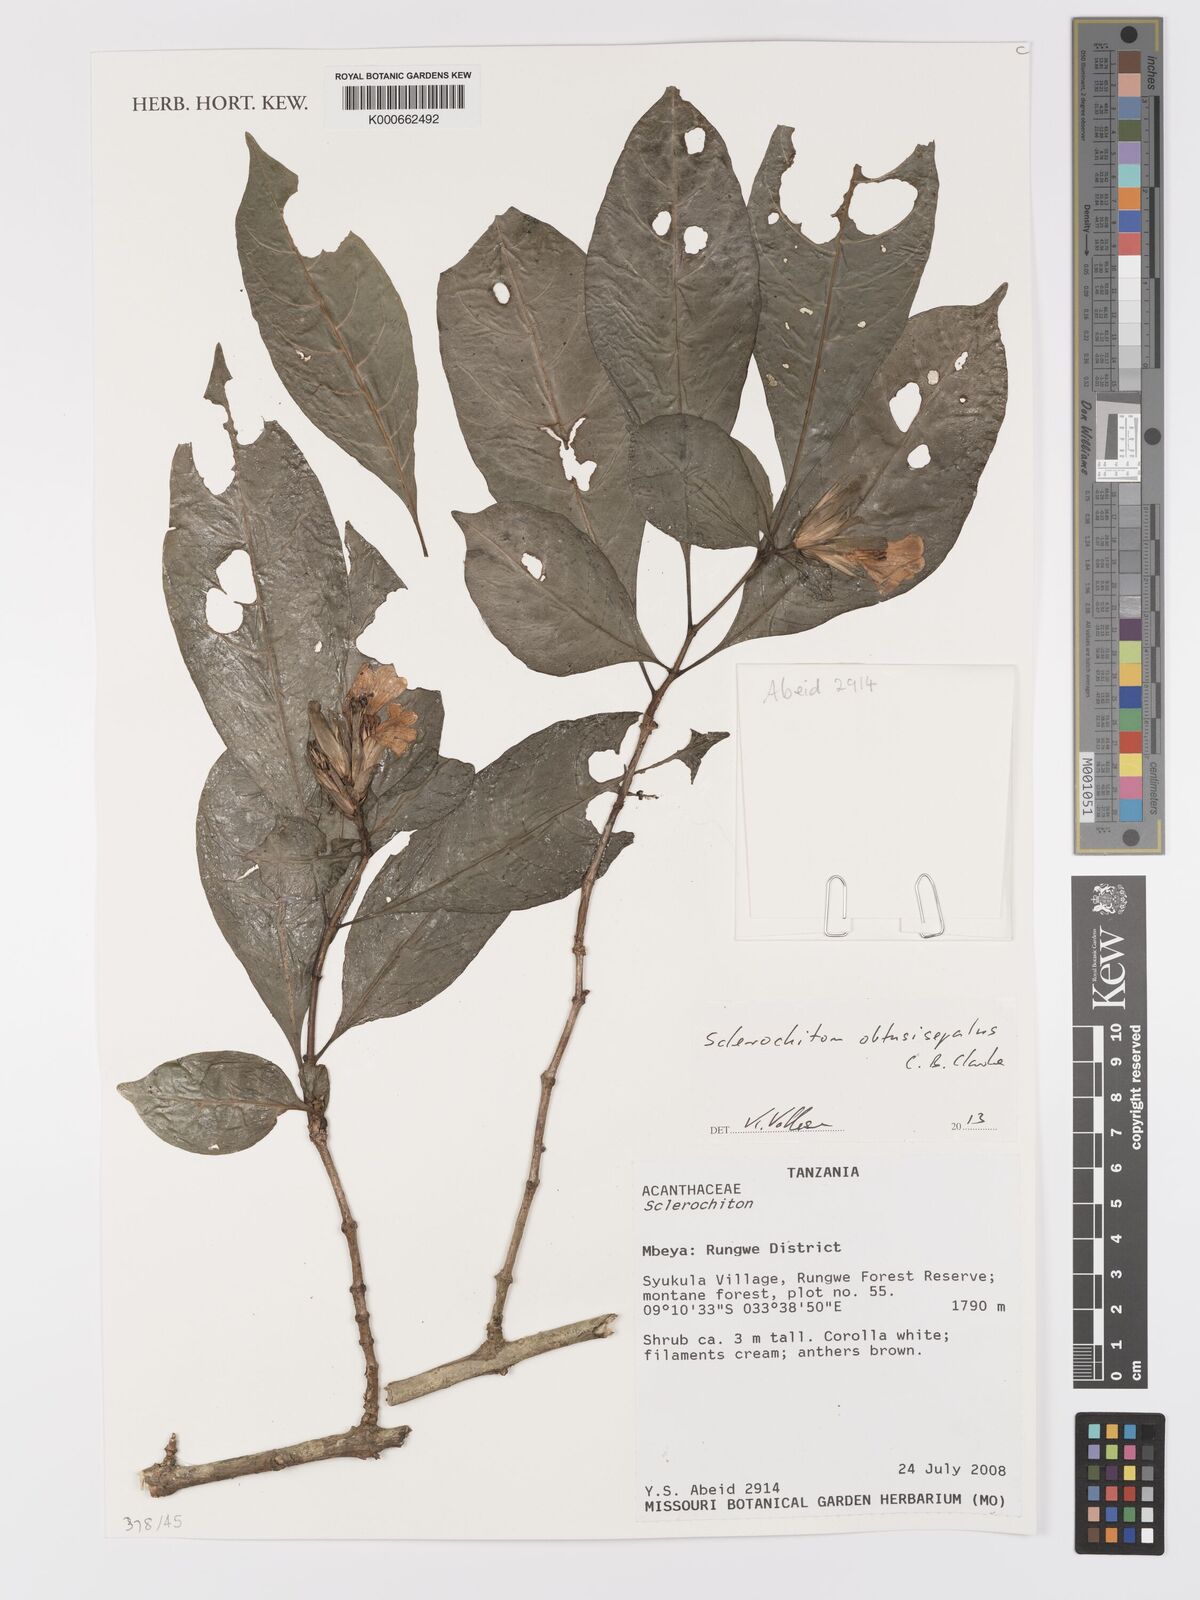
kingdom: Plantae
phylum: Tracheophyta
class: Magnoliopsida
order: Lamiales
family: Acanthaceae
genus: Sclerochiton
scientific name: Sclerochiton obtusisepalus
